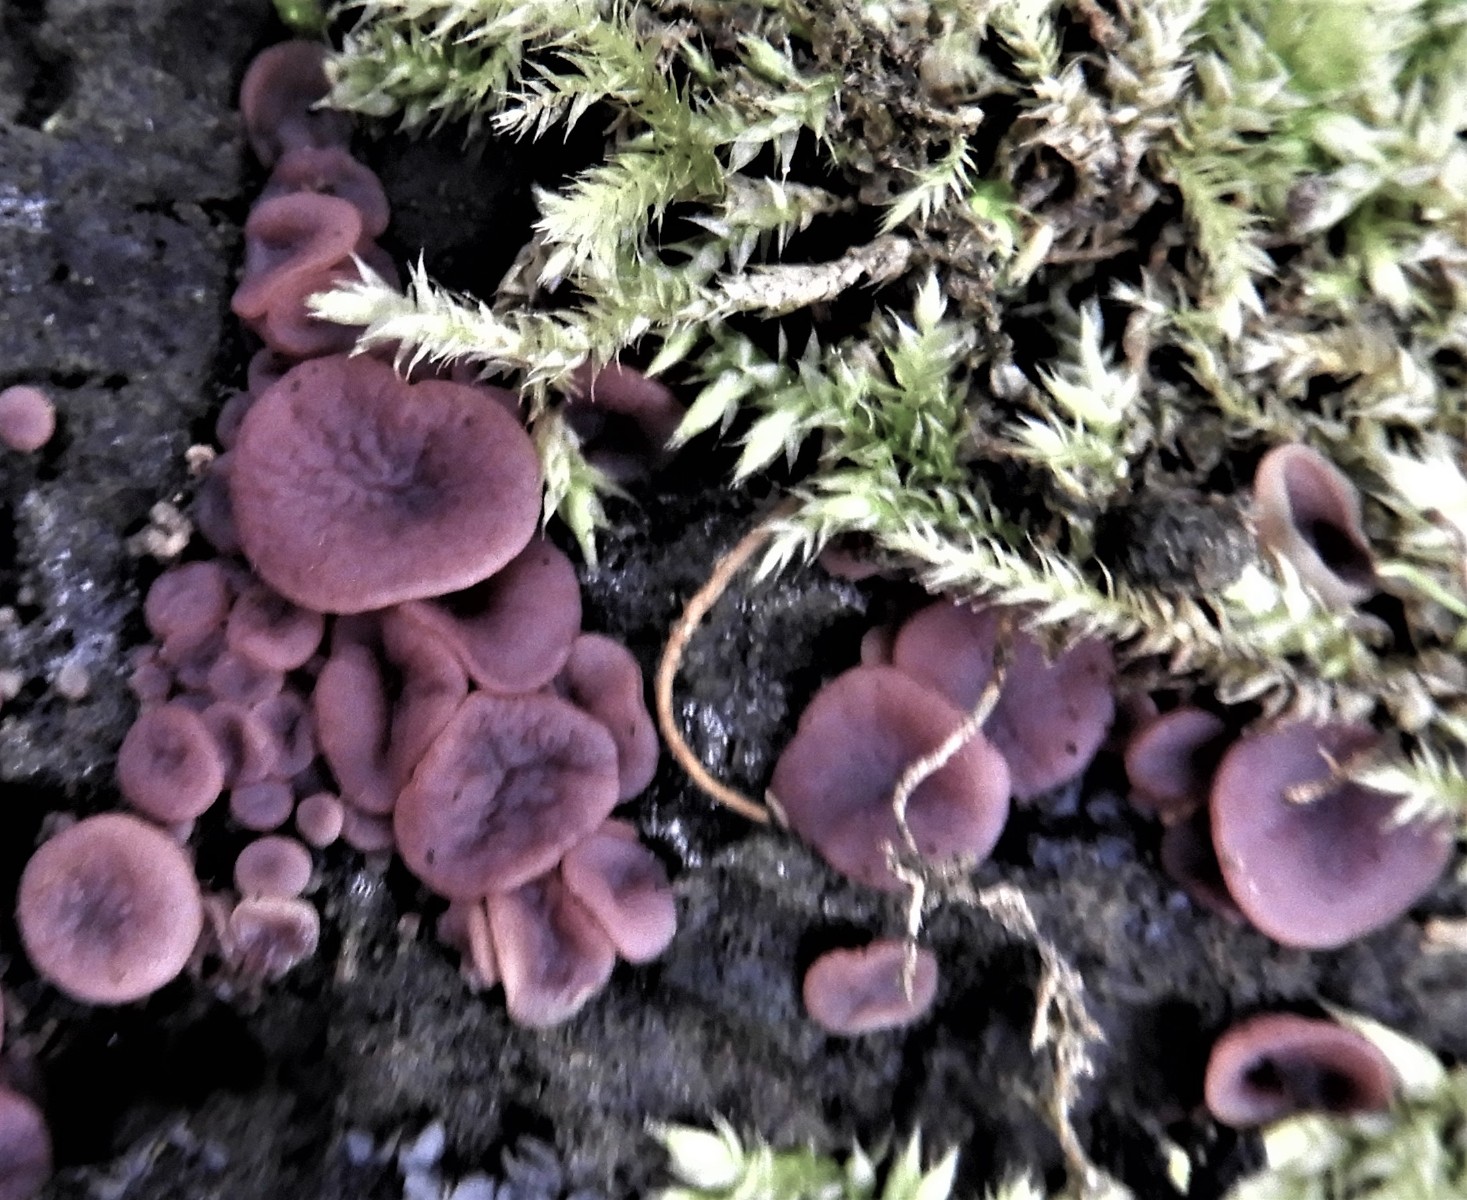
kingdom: Fungi
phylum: Ascomycota
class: Leotiomycetes
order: Helotiales
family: Gelatinodiscaceae
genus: Ascocoryne
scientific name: Ascocoryne cylichnium
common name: stor sejskive
